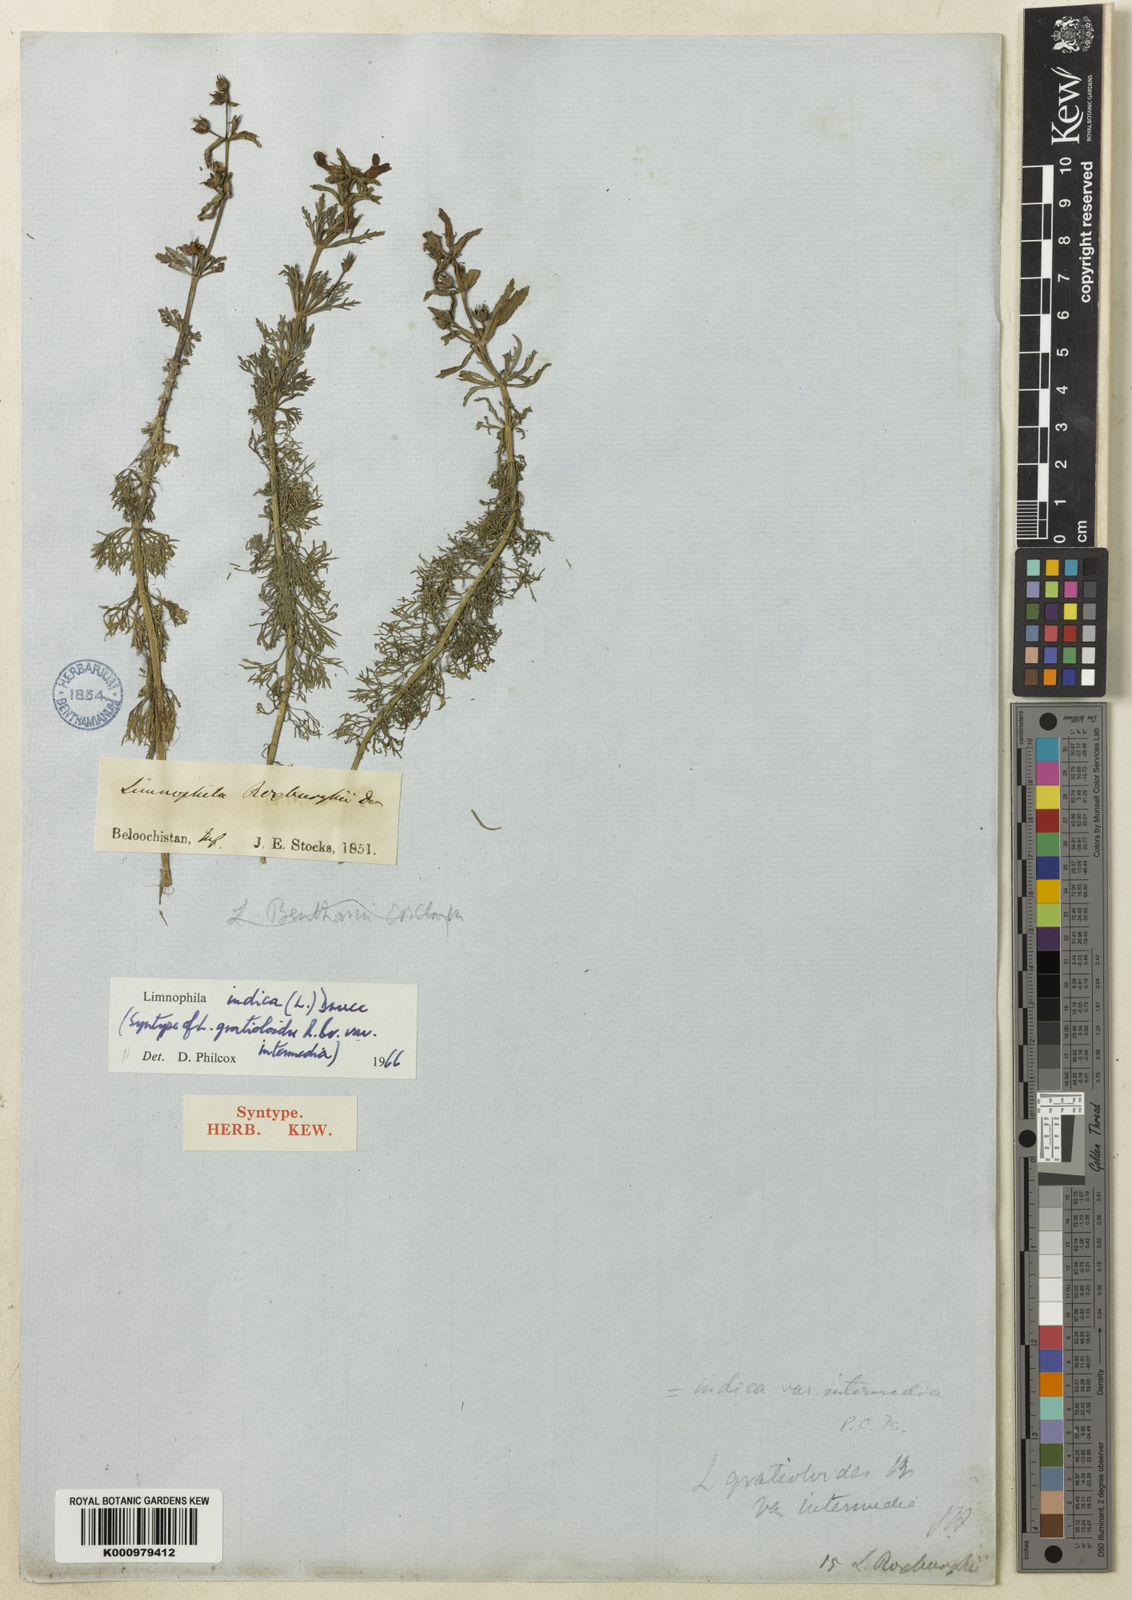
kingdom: Plantae
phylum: Tracheophyta
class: Magnoliopsida
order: Lamiales
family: Plantaginaceae
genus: Limnophila
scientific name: Limnophila indica
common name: Indian marshweed
